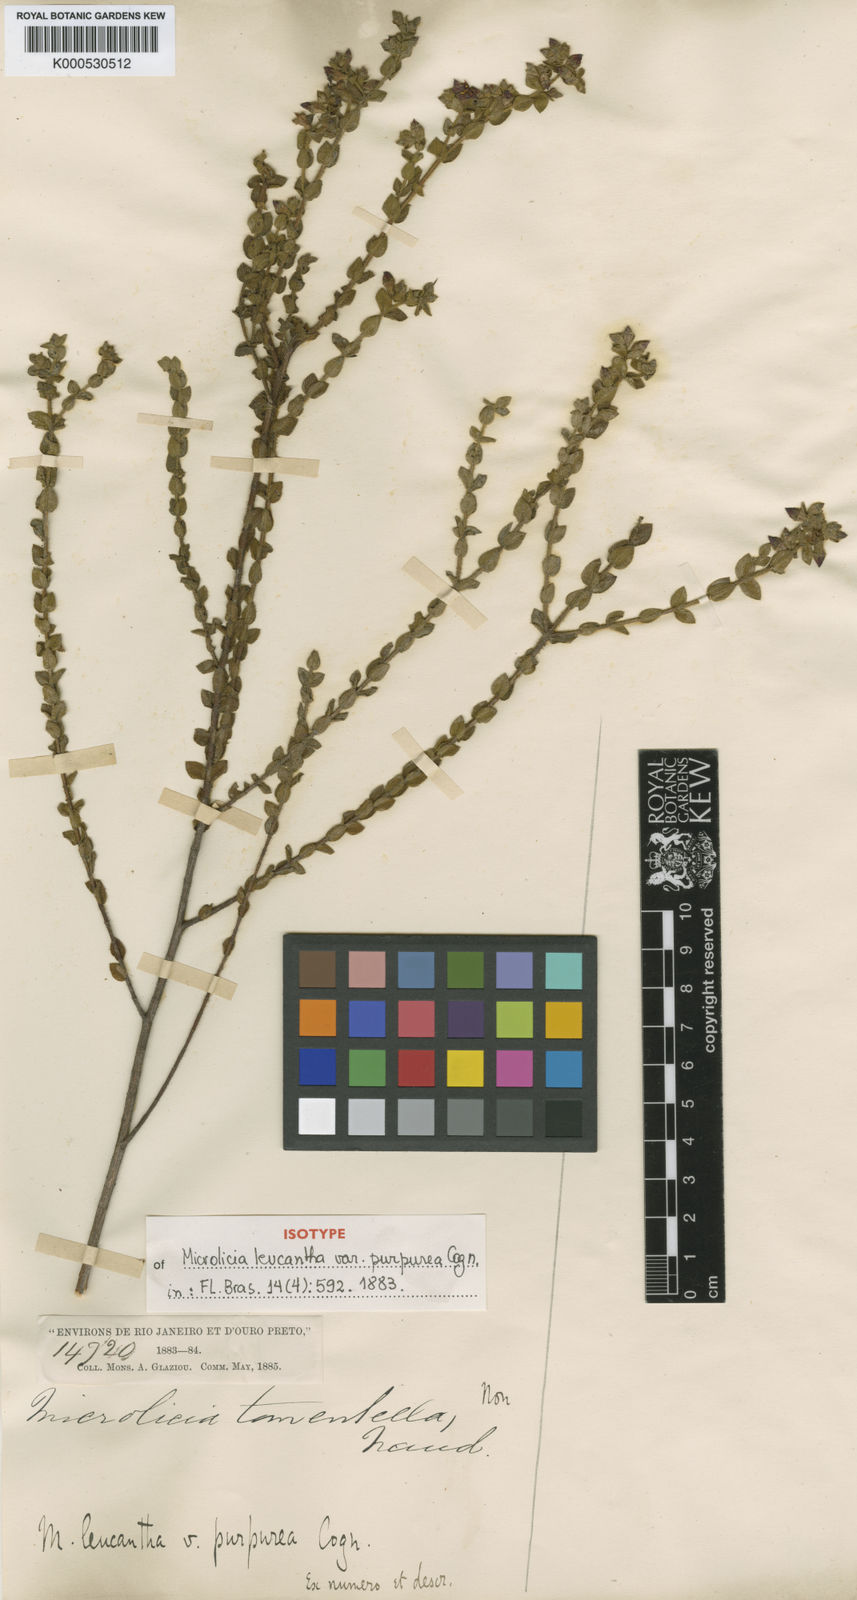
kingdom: Plantae
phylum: Tracheophyta
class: Magnoliopsida
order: Myrtales
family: Melastomataceae
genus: Microlicia
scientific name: Microlicia graveolens
